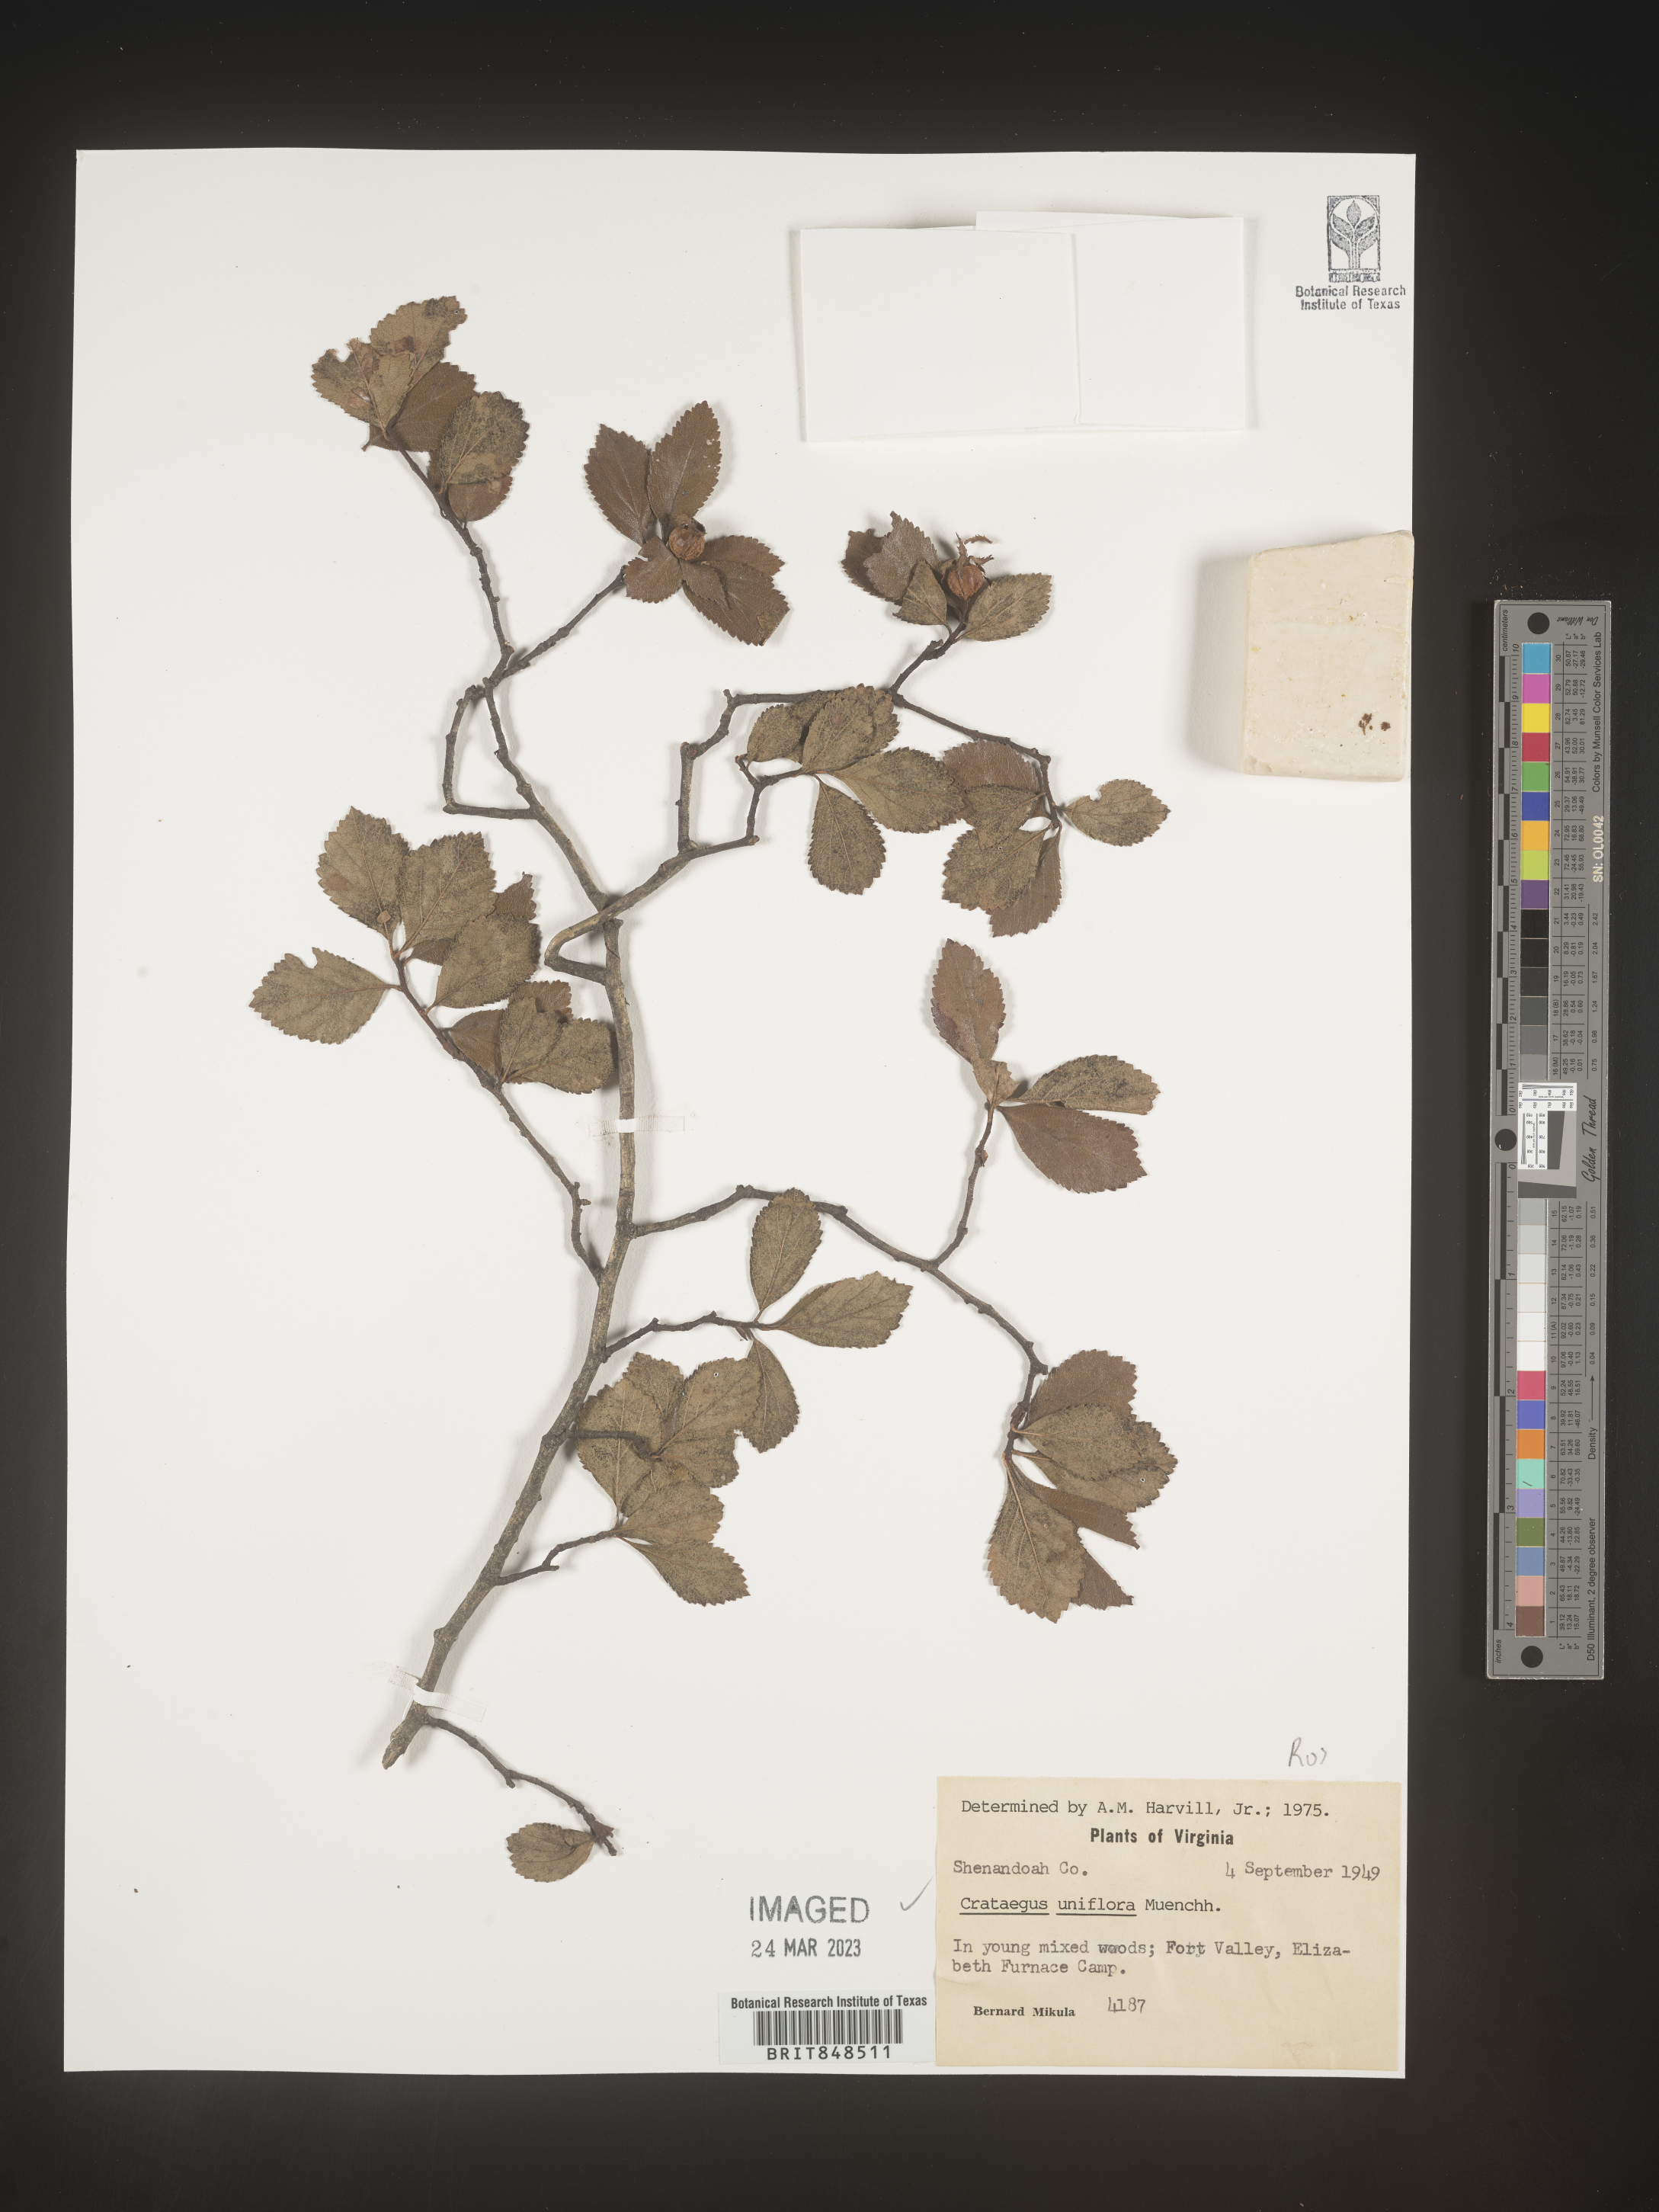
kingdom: Plantae
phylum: Tracheophyta
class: Magnoliopsida
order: Rosales
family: Rosaceae
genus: Crataegus
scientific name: Crataegus uniflora
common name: One-flower hawthorn
